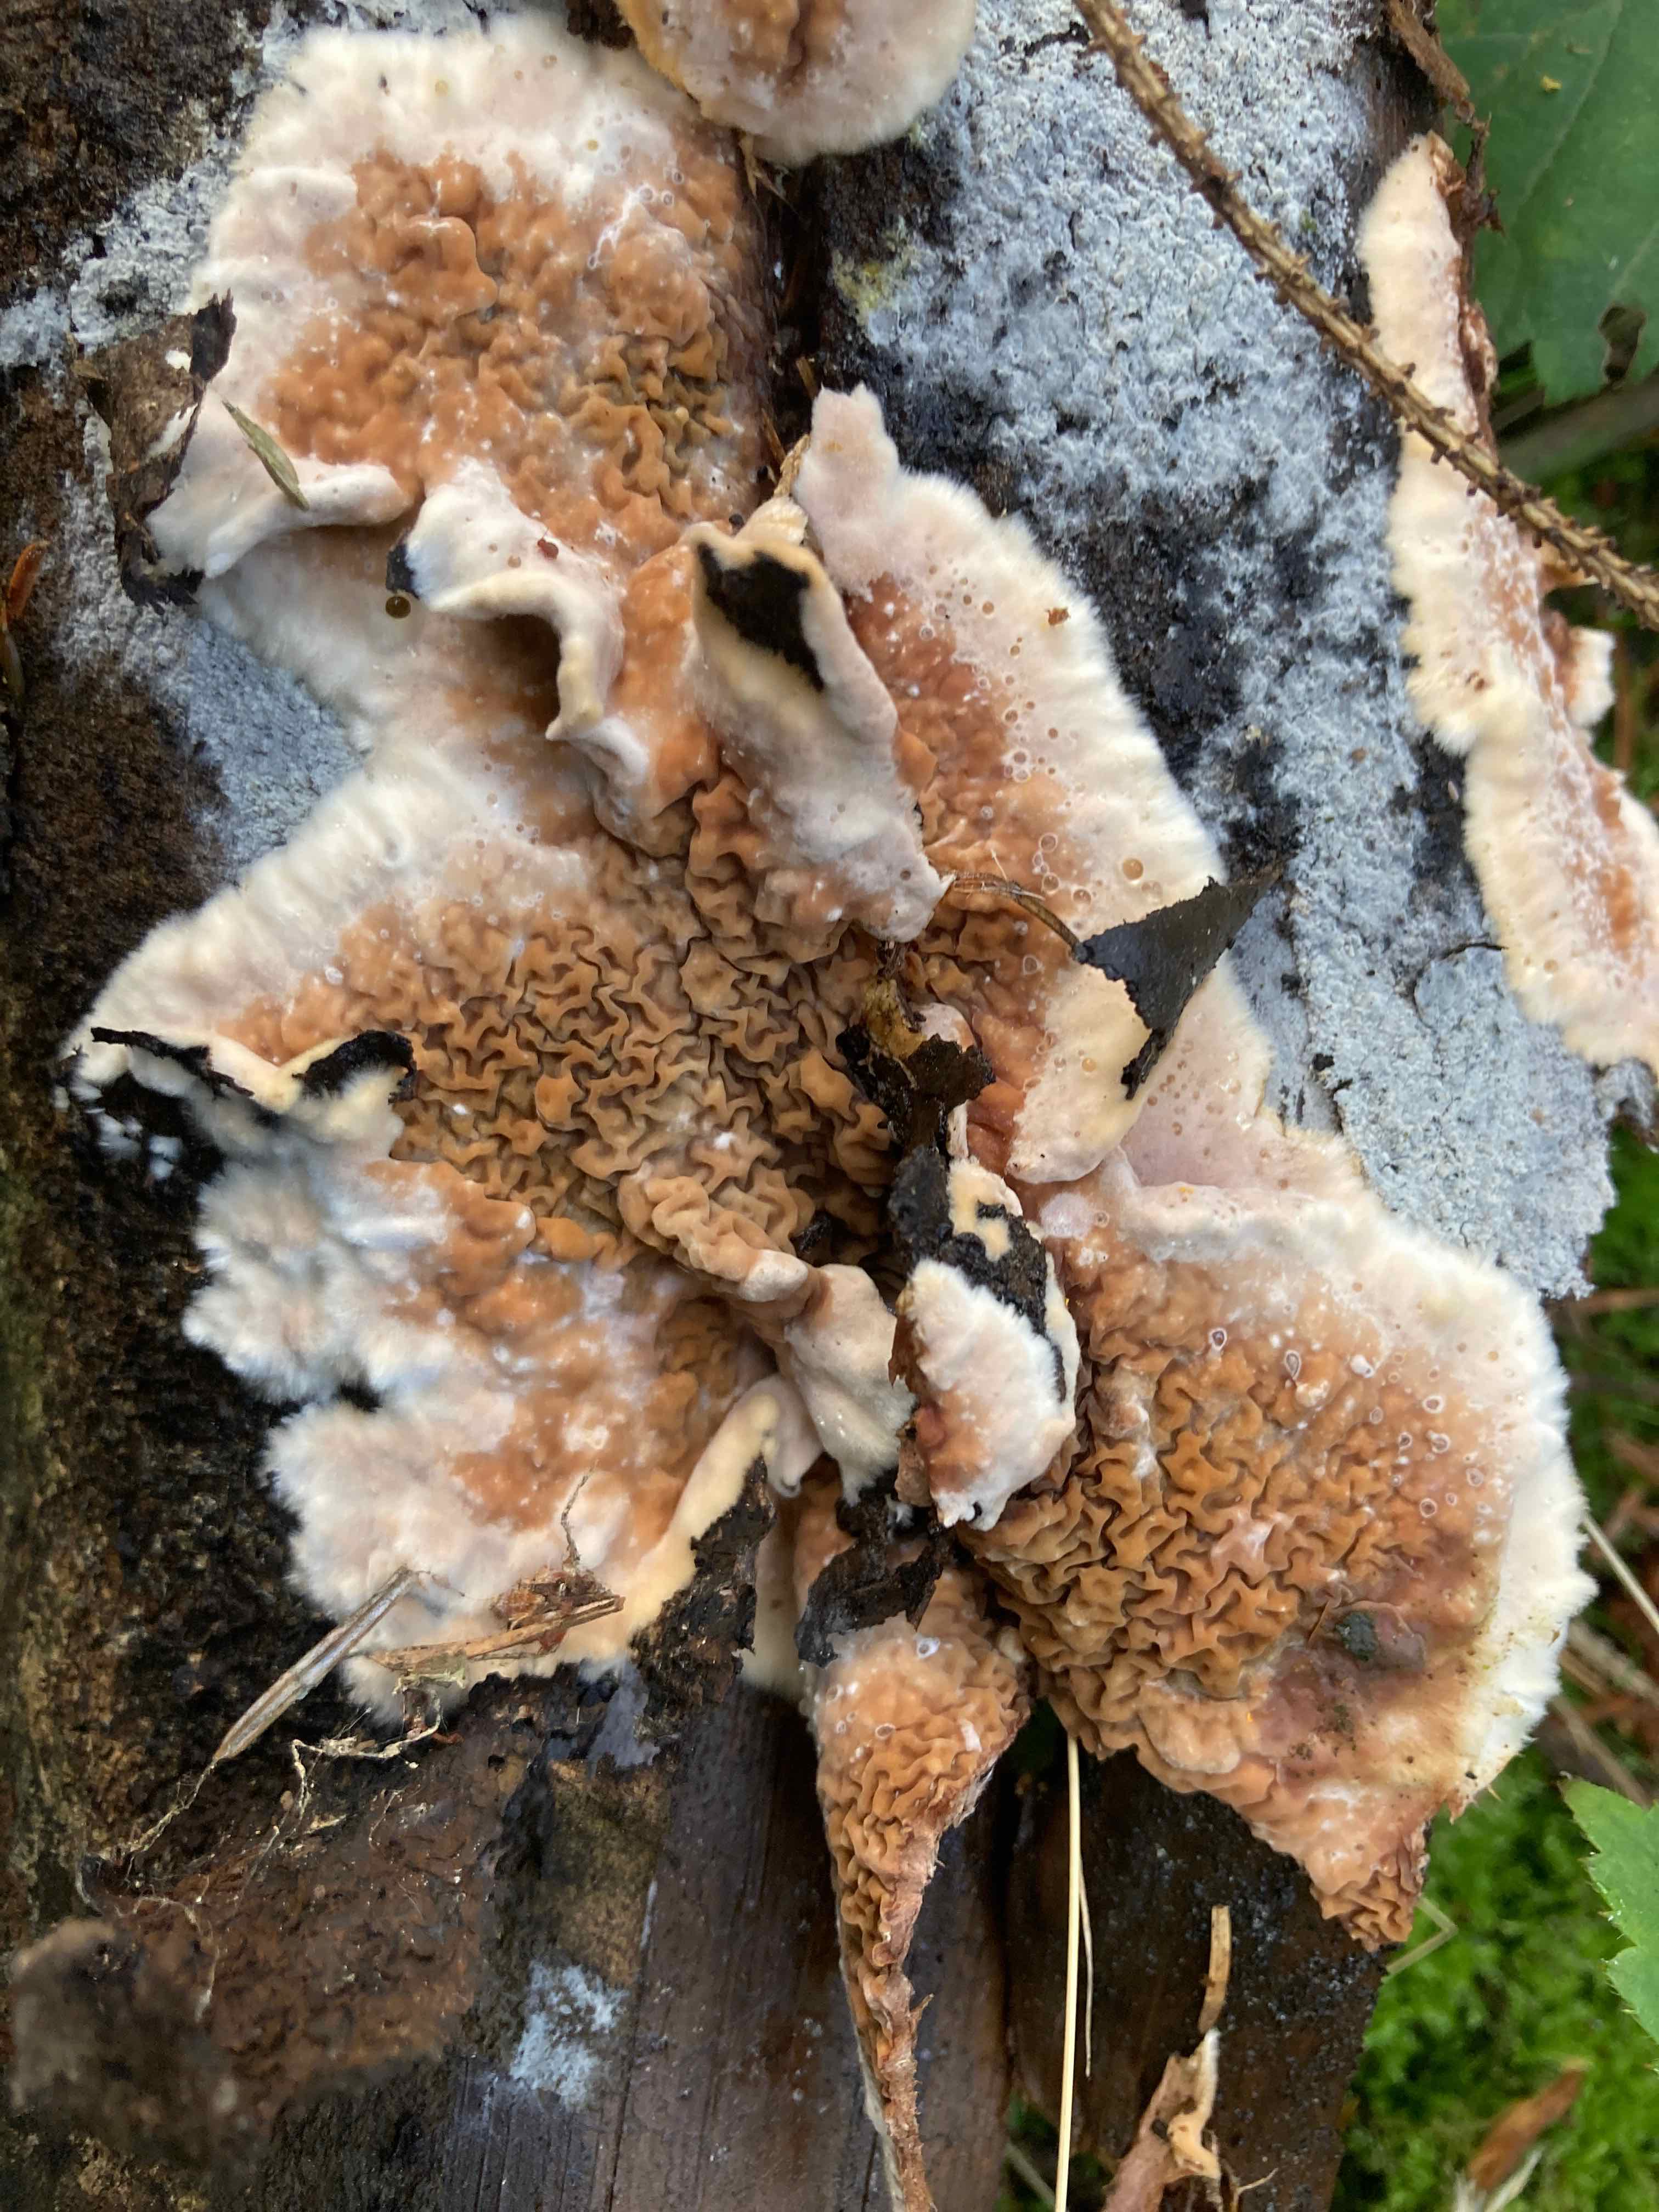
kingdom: Fungi
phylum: Basidiomycota
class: Agaricomycetes
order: Boletales
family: Serpulaceae
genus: Serpula
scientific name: Serpula himantioides
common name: tyndkødet hussvamp
